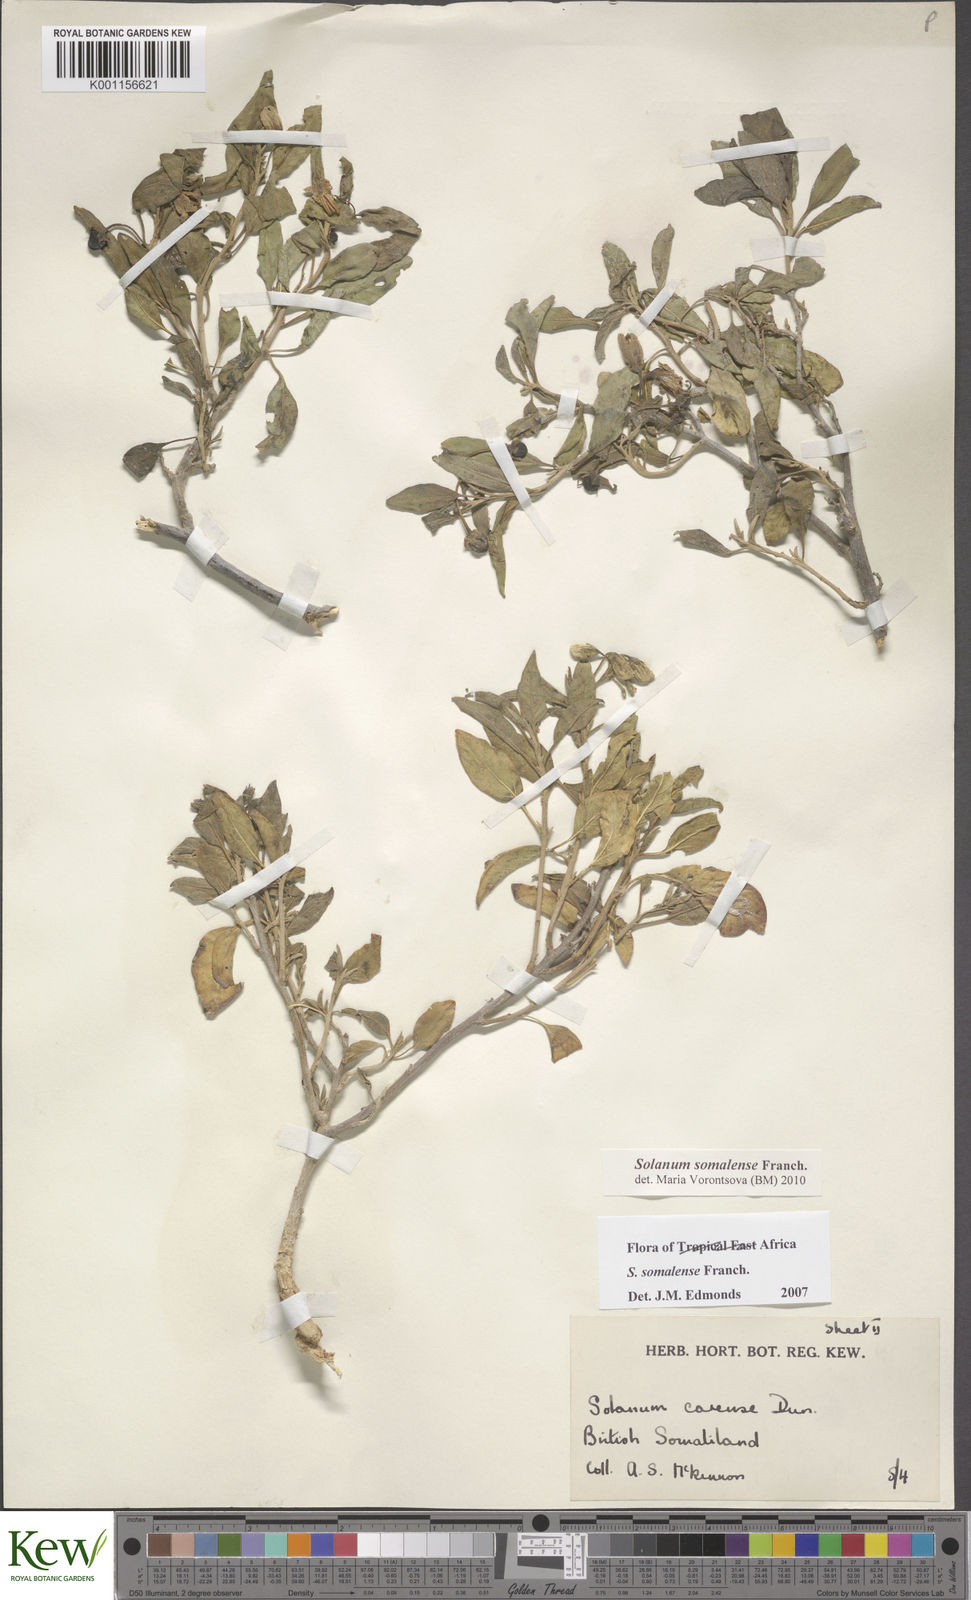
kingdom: Plantae
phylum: Tracheophyta
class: Magnoliopsida
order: Solanales
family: Solanaceae
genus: Solanum
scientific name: Solanum somalense
